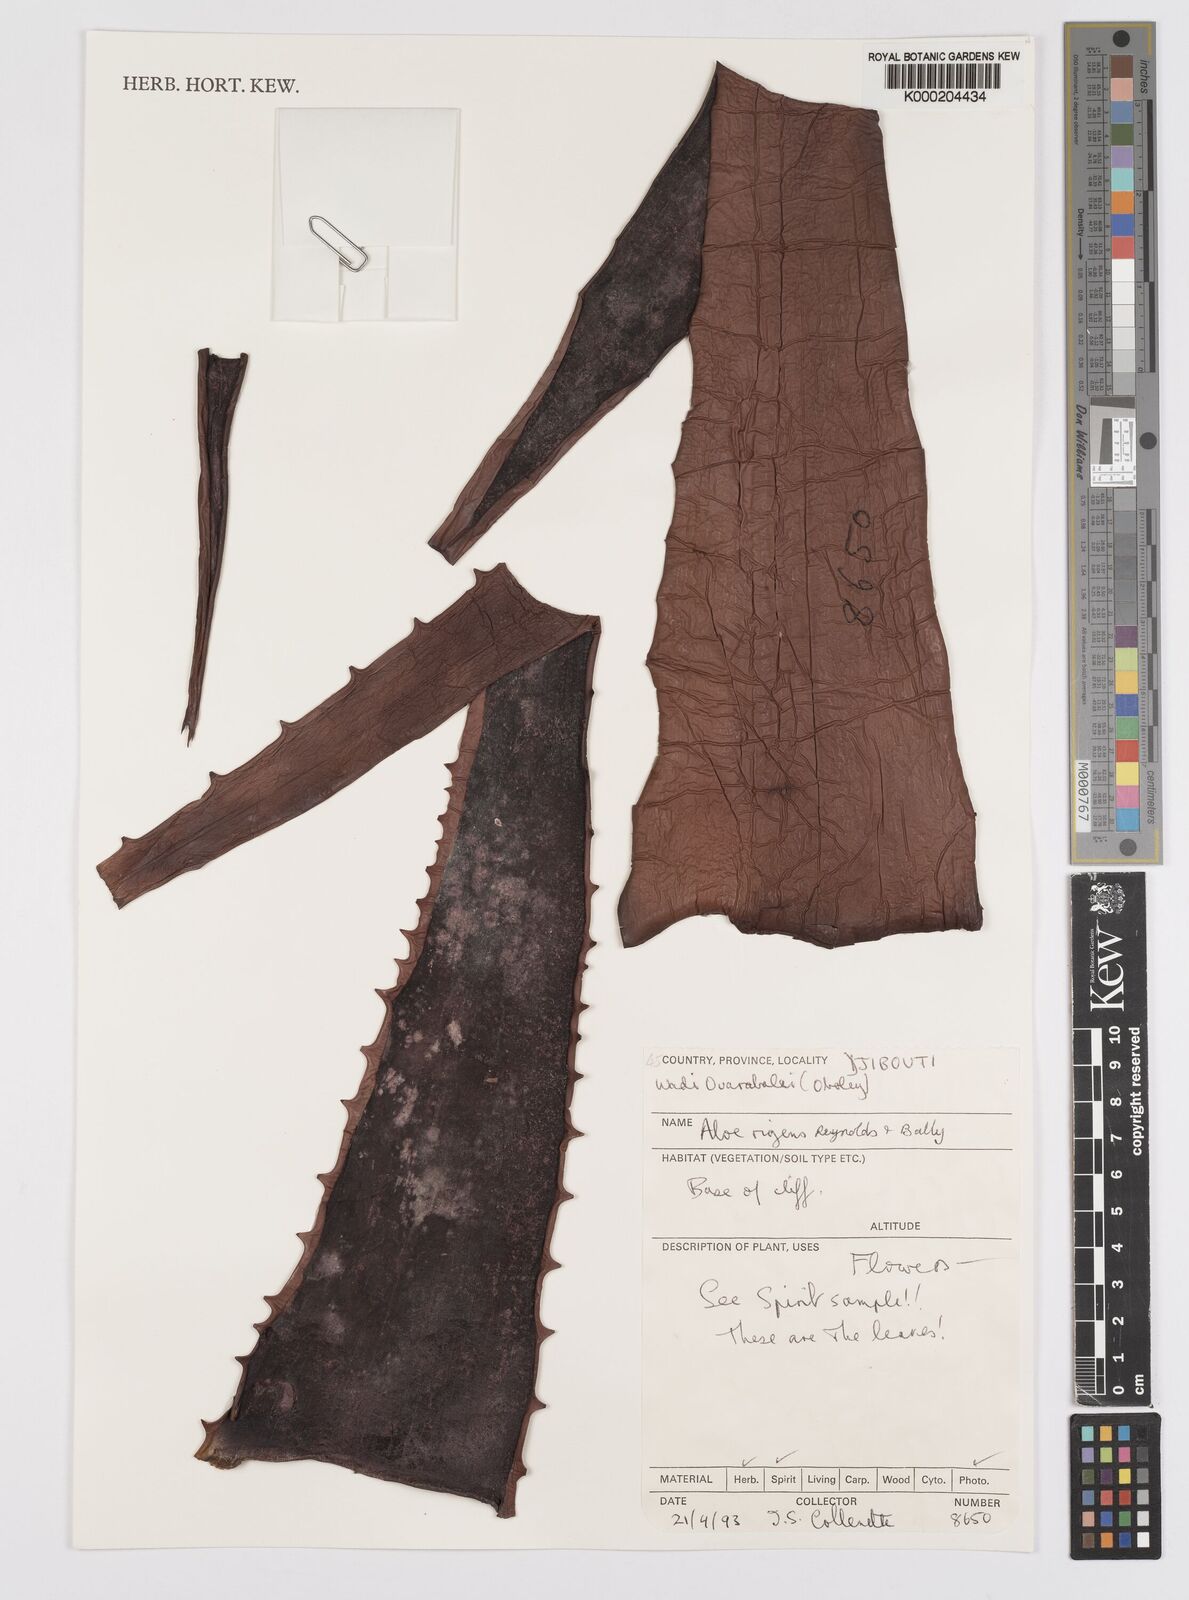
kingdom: Plantae
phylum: Tracheophyta
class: Liliopsida
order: Asparagales
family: Asphodelaceae
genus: Aloe
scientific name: Aloe rigens
